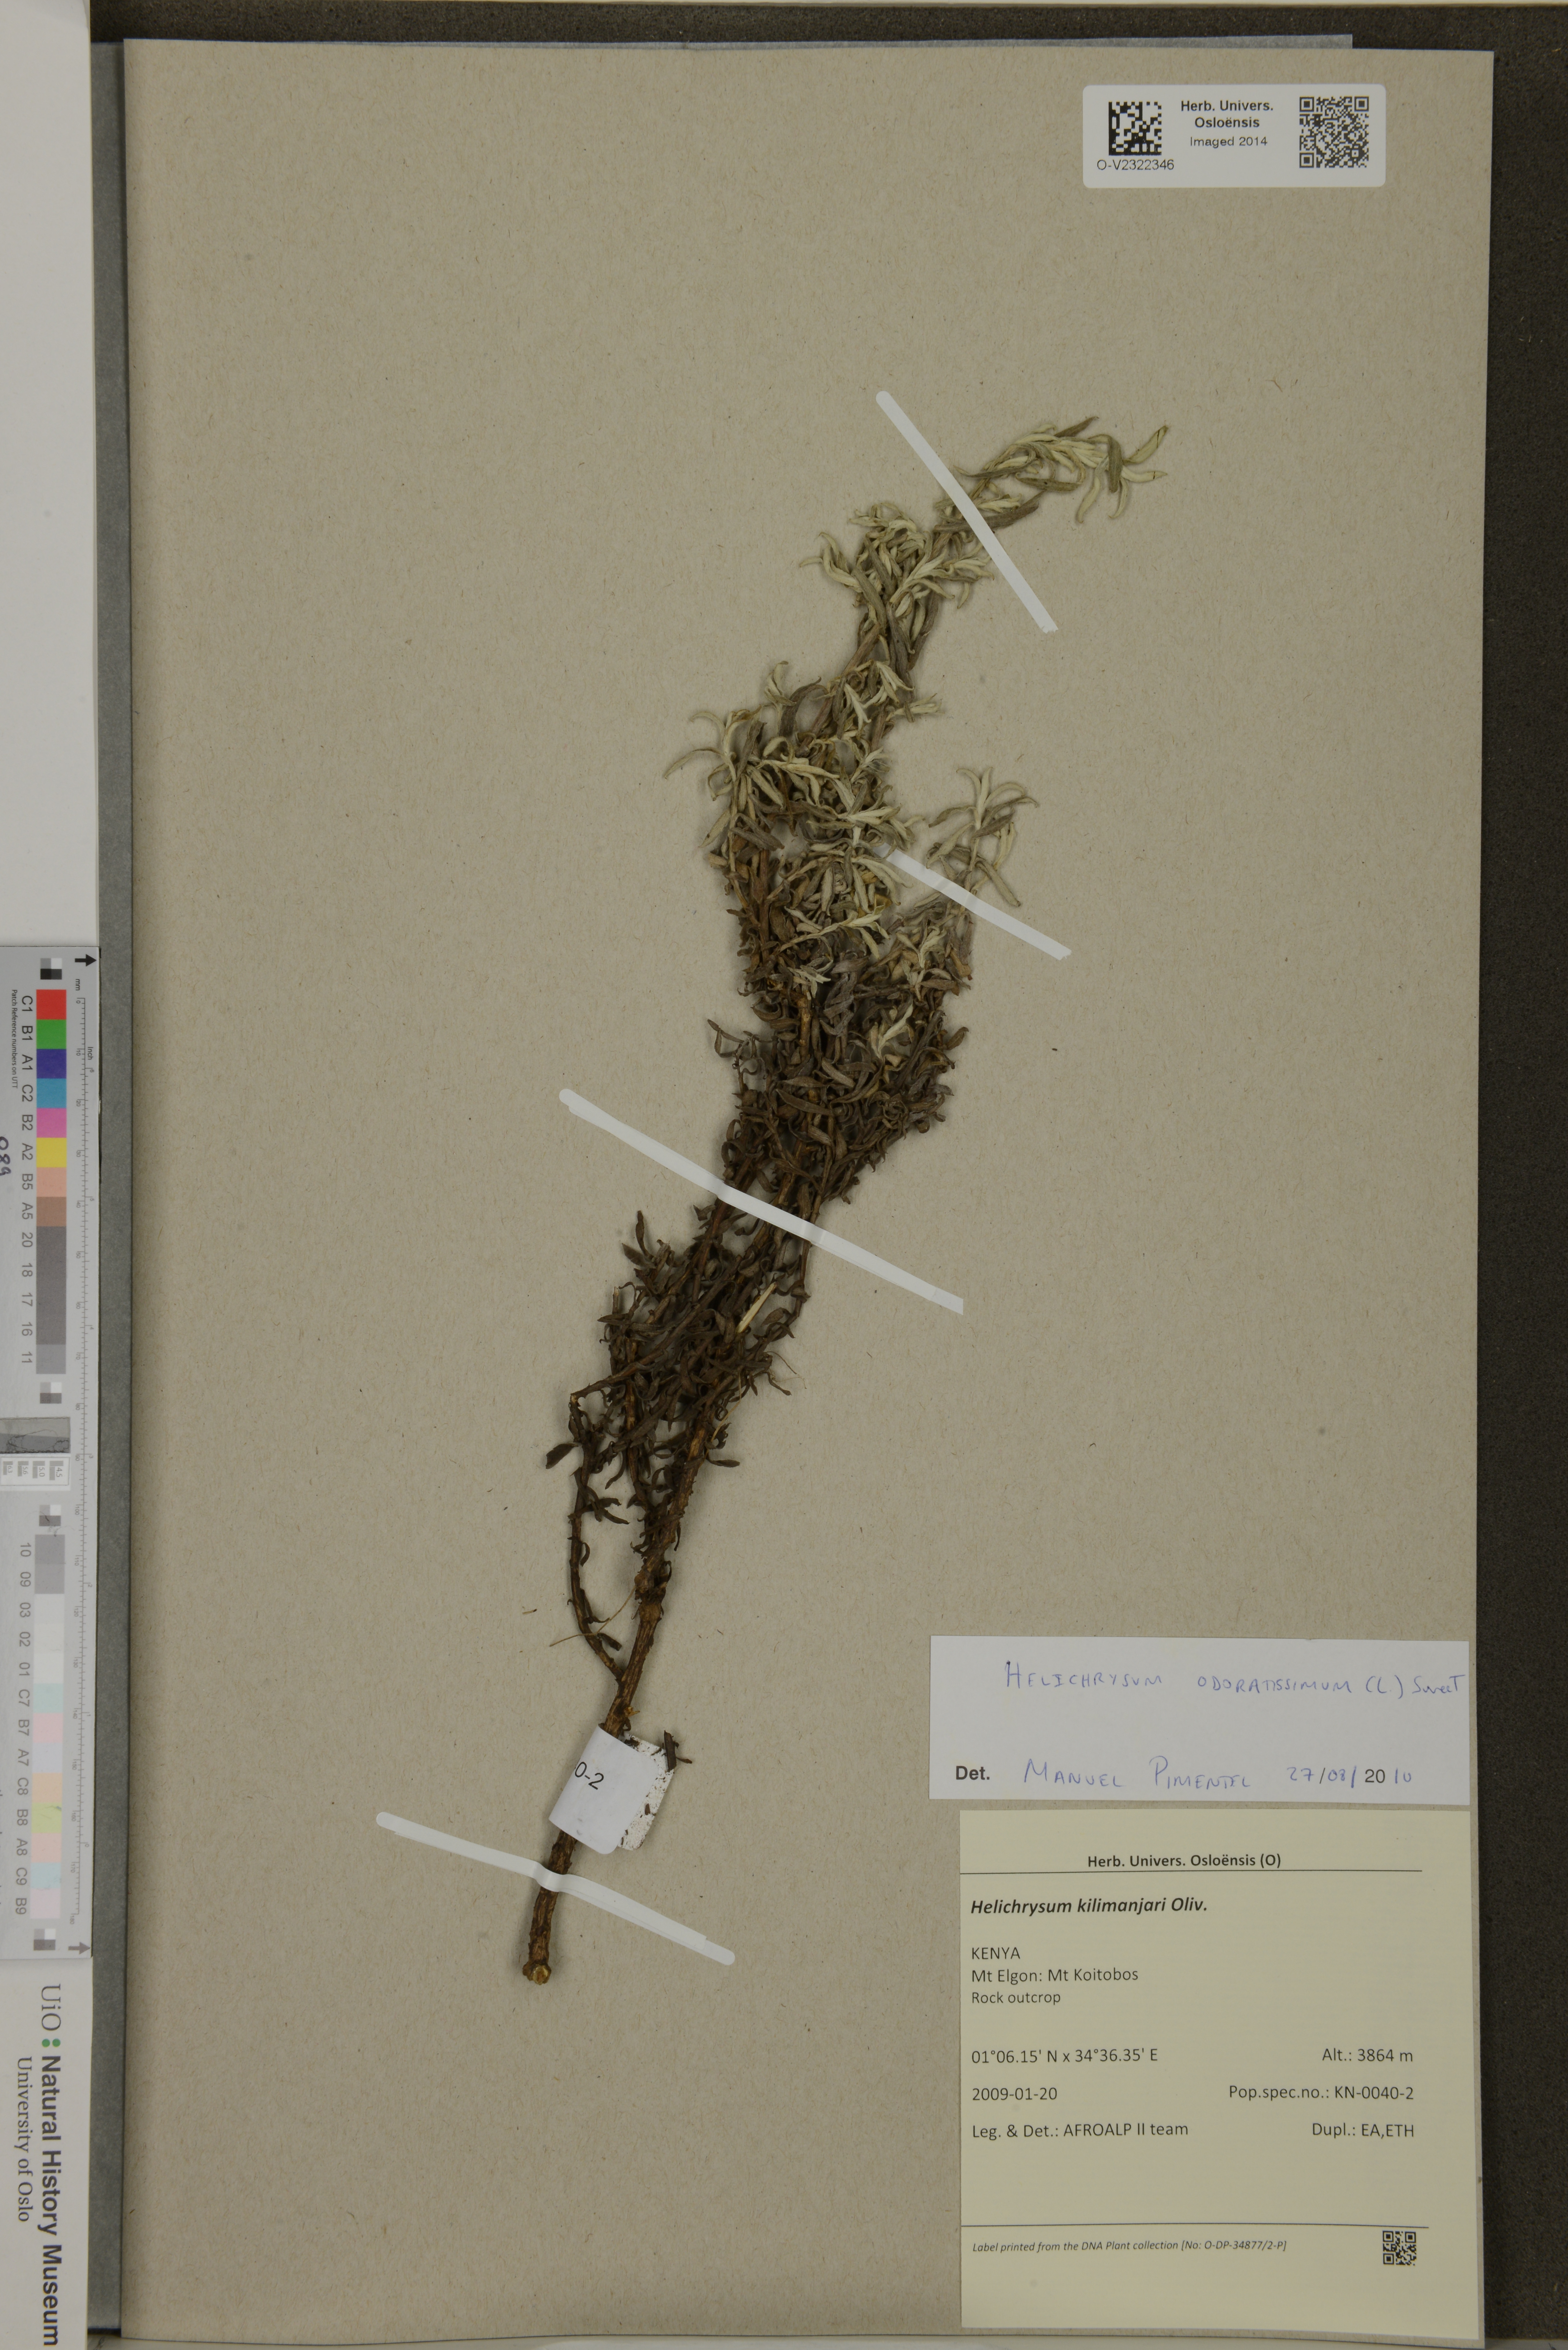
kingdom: Plantae
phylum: Tracheophyta
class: Magnoliopsida
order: Asterales
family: Asteraceae
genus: Helichrysum
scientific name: Helichrysum kilimanjari
